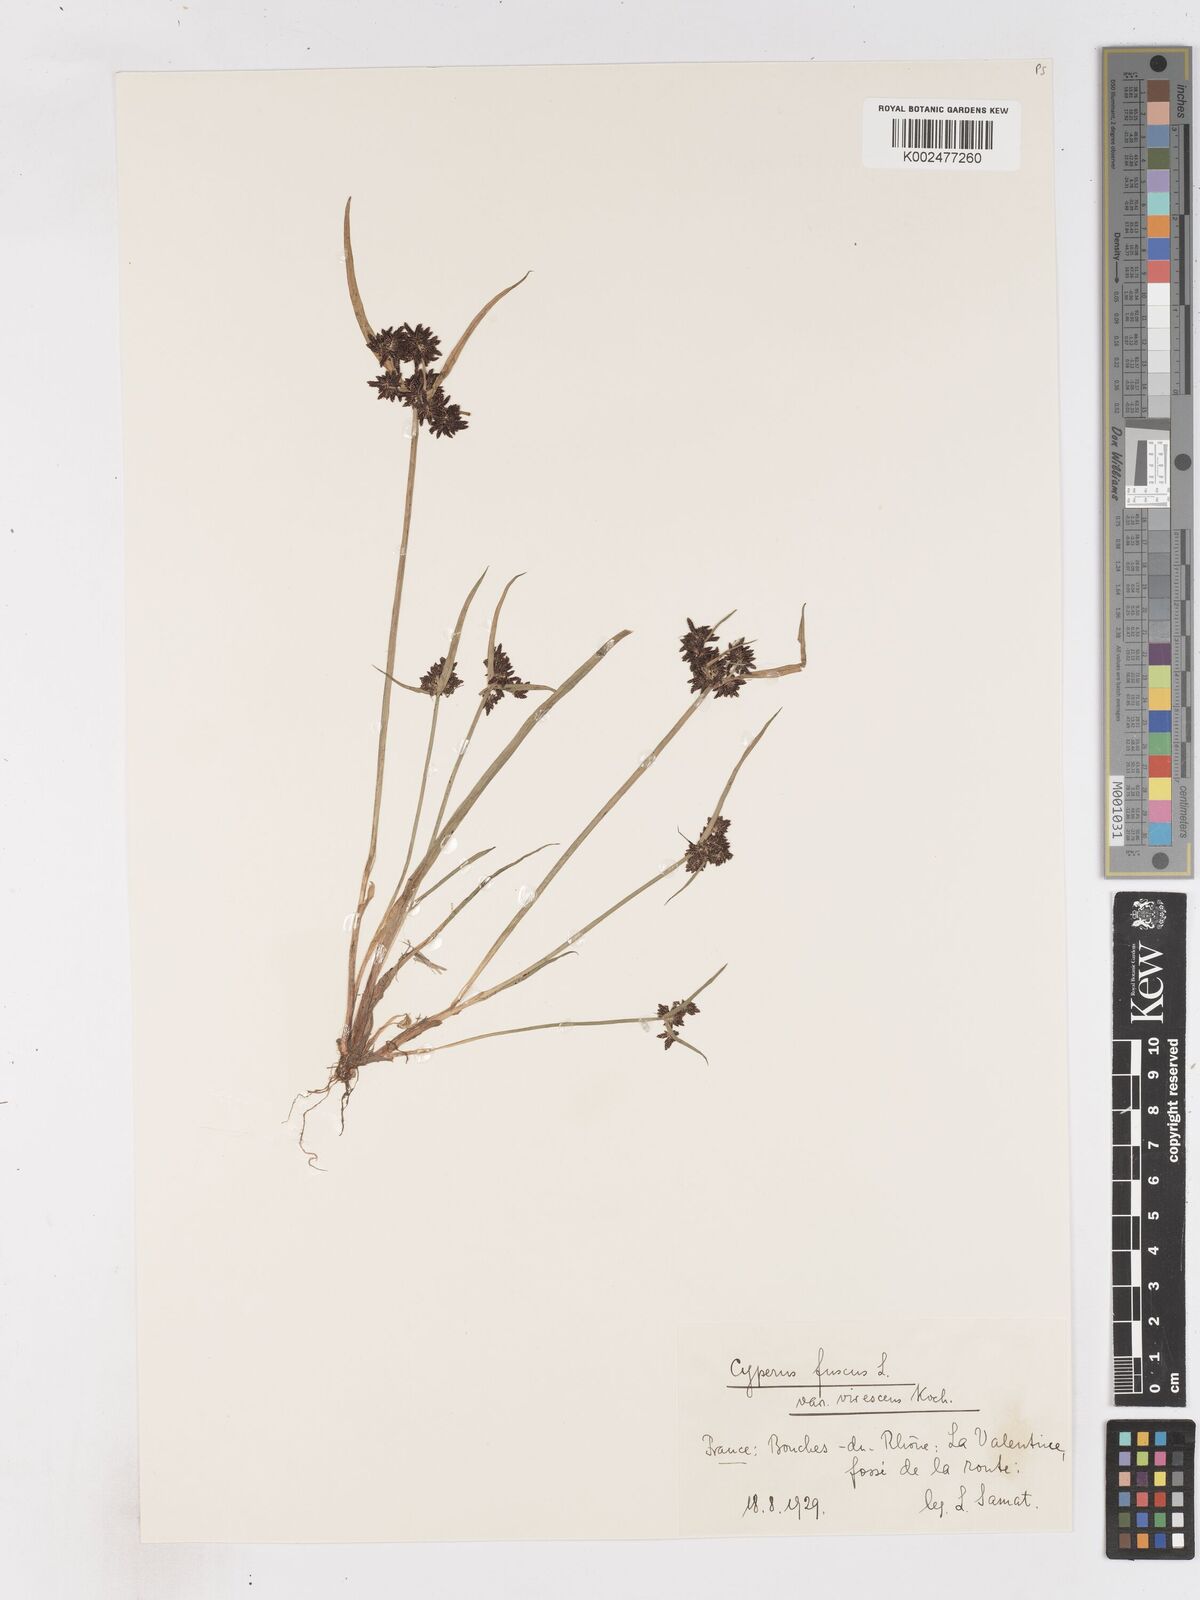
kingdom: Plantae
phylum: Tracheophyta
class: Liliopsida
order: Poales
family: Cyperaceae
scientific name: Cyperaceae
